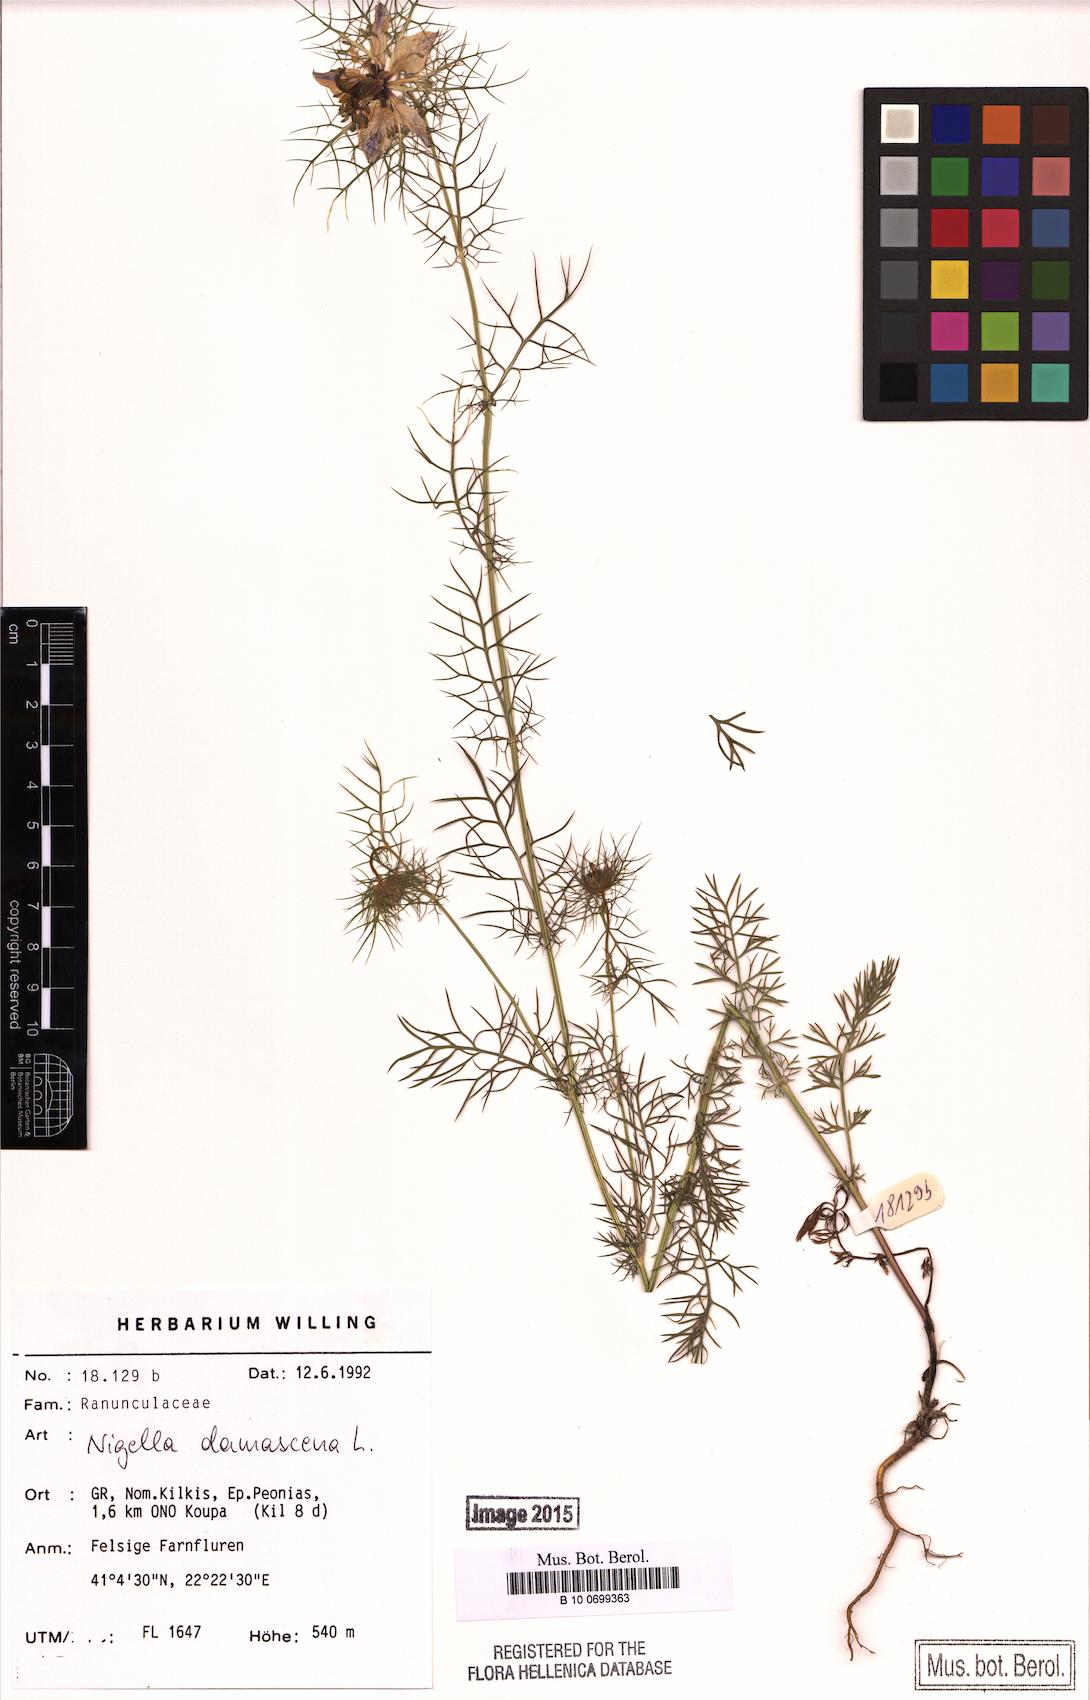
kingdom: Plantae
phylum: Tracheophyta
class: Magnoliopsida
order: Ranunculales
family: Ranunculaceae
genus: Nigella
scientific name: Nigella damascena
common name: Love-in-a-mist
